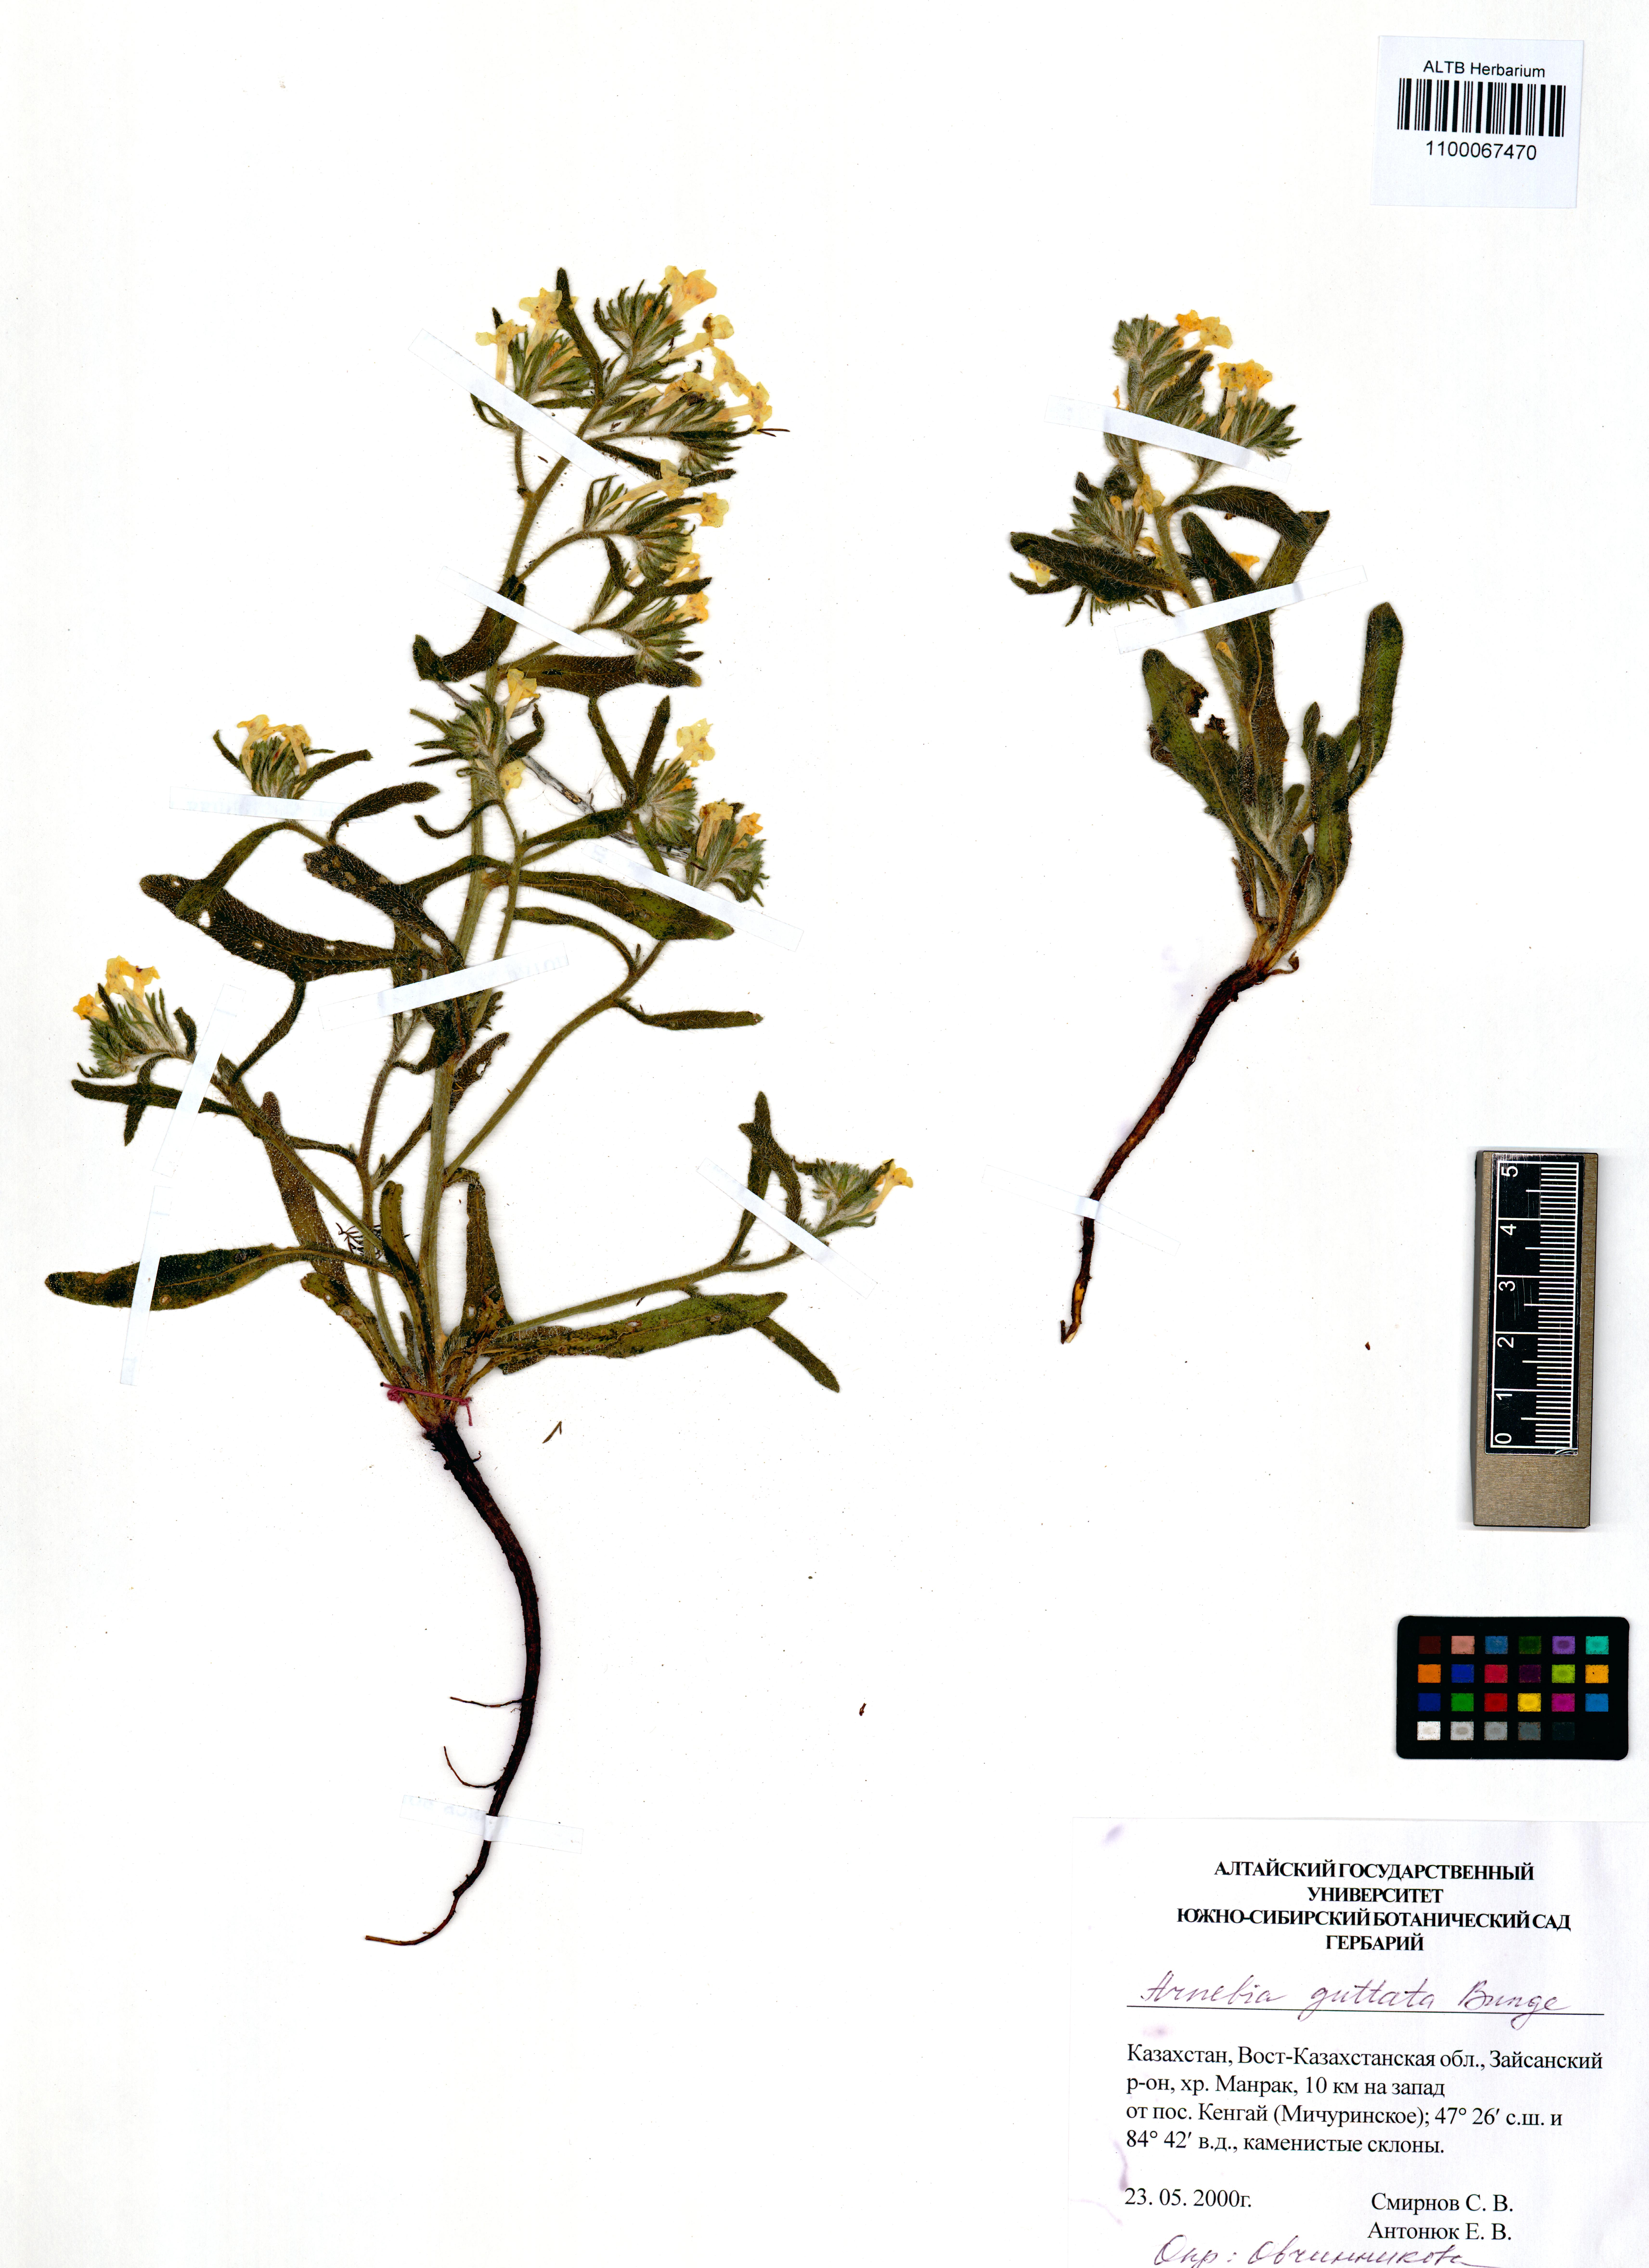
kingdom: Plantae
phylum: Tracheophyta
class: Magnoliopsida
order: Boraginales
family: Boraginaceae
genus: Arnebia
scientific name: Arnebia guttata
